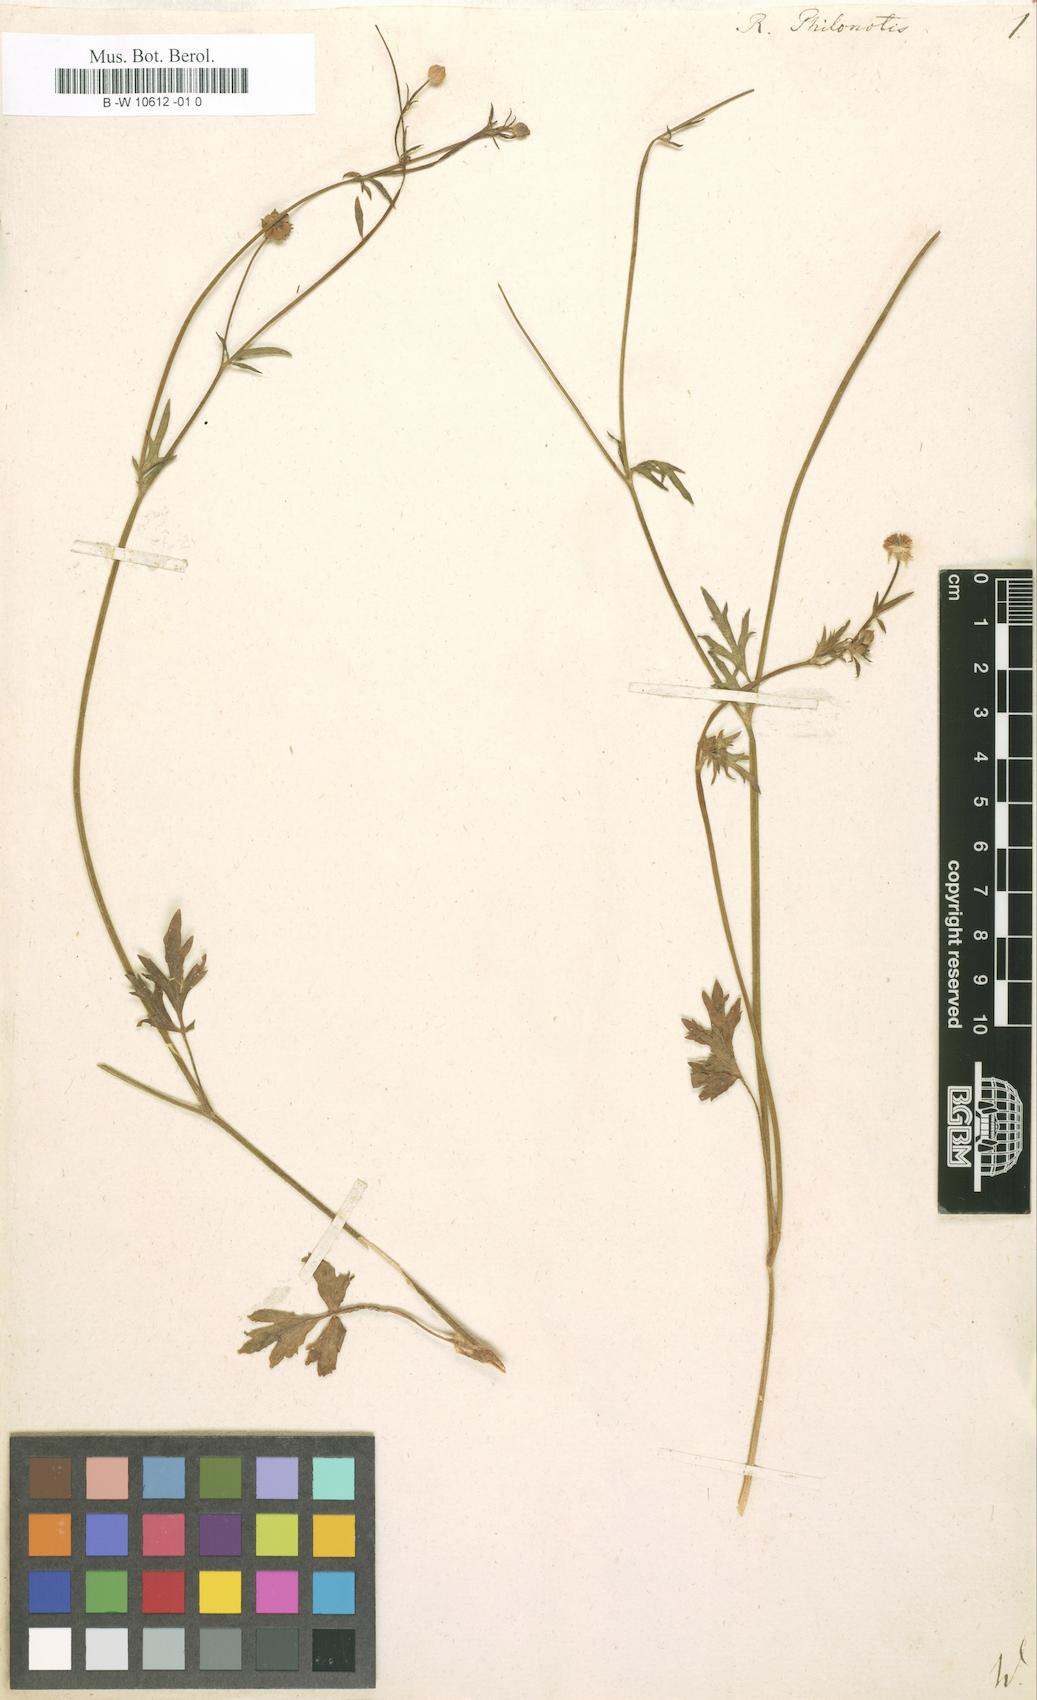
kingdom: Plantae
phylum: Tracheophyta
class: Magnoliopsida
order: Ranunculales
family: Ranunculaceae
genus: Ranunculus
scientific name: Ranunculus
